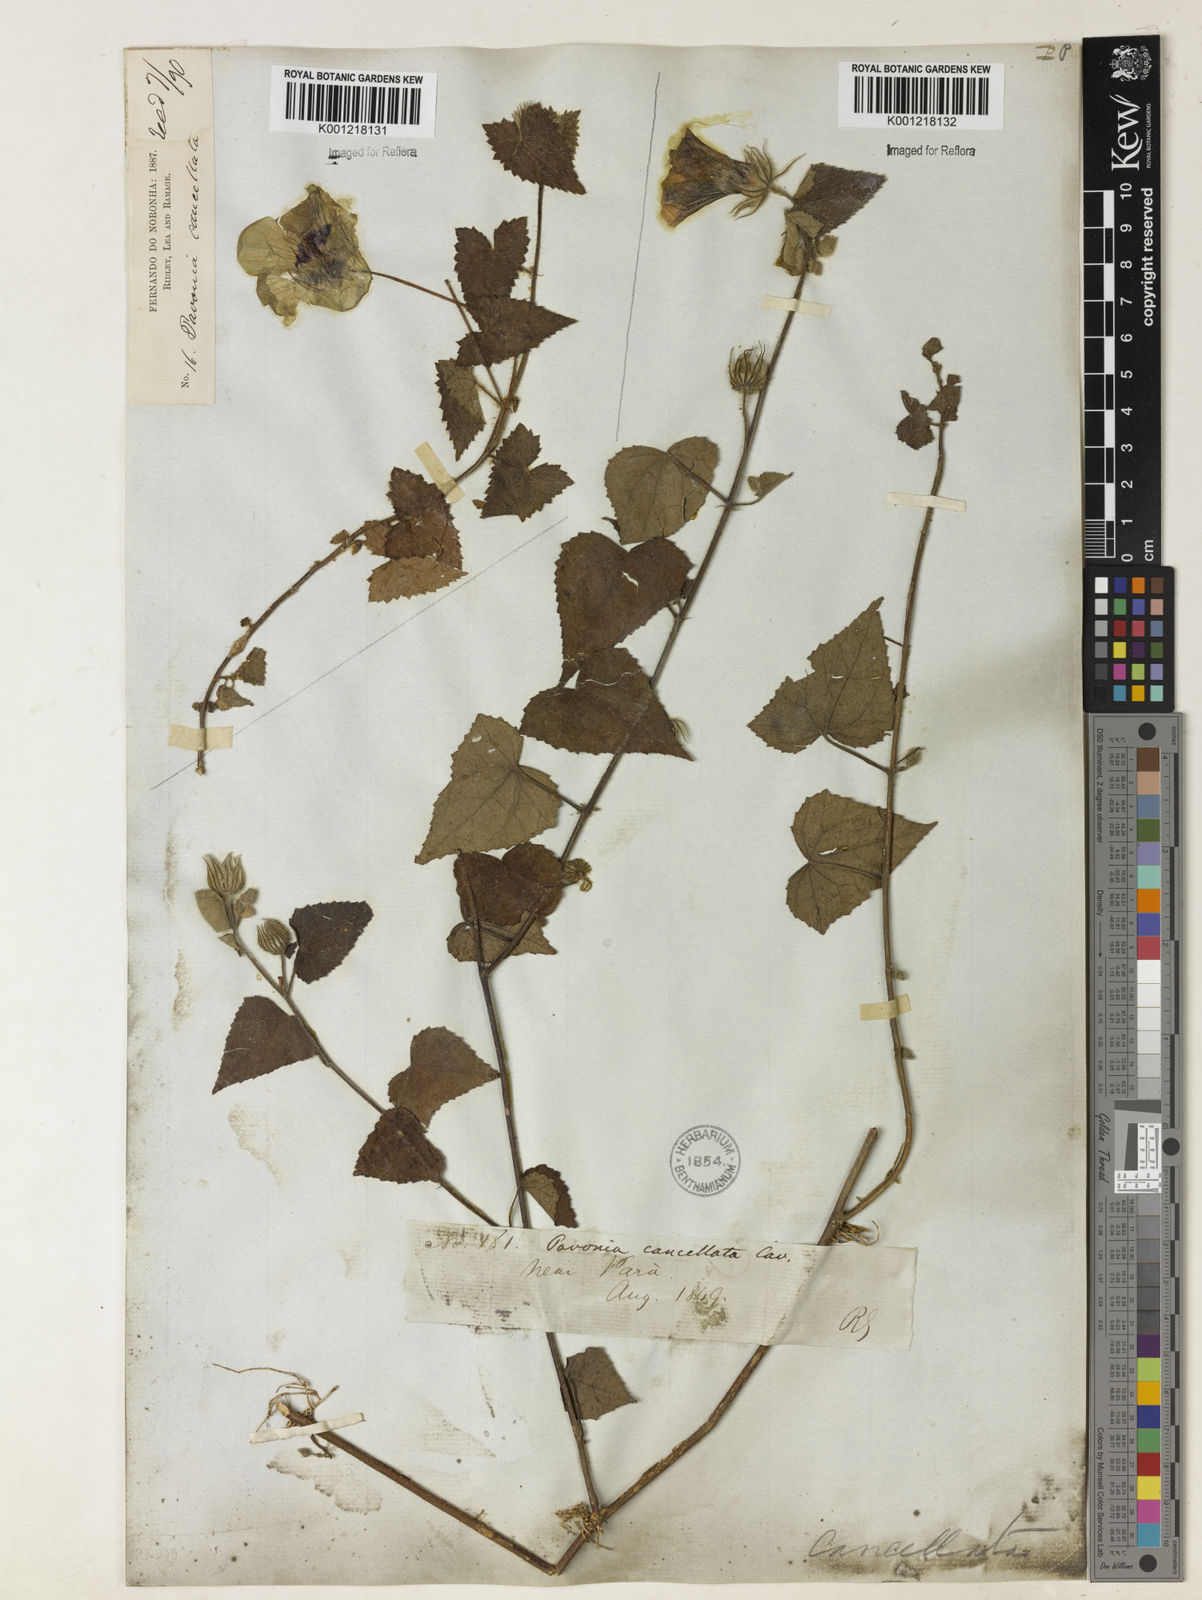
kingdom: Plantae
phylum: Tracheophyta
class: Magnoliopsida
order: Malvales
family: Malvaceae
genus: Pavonia
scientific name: Pavonia cancellata
